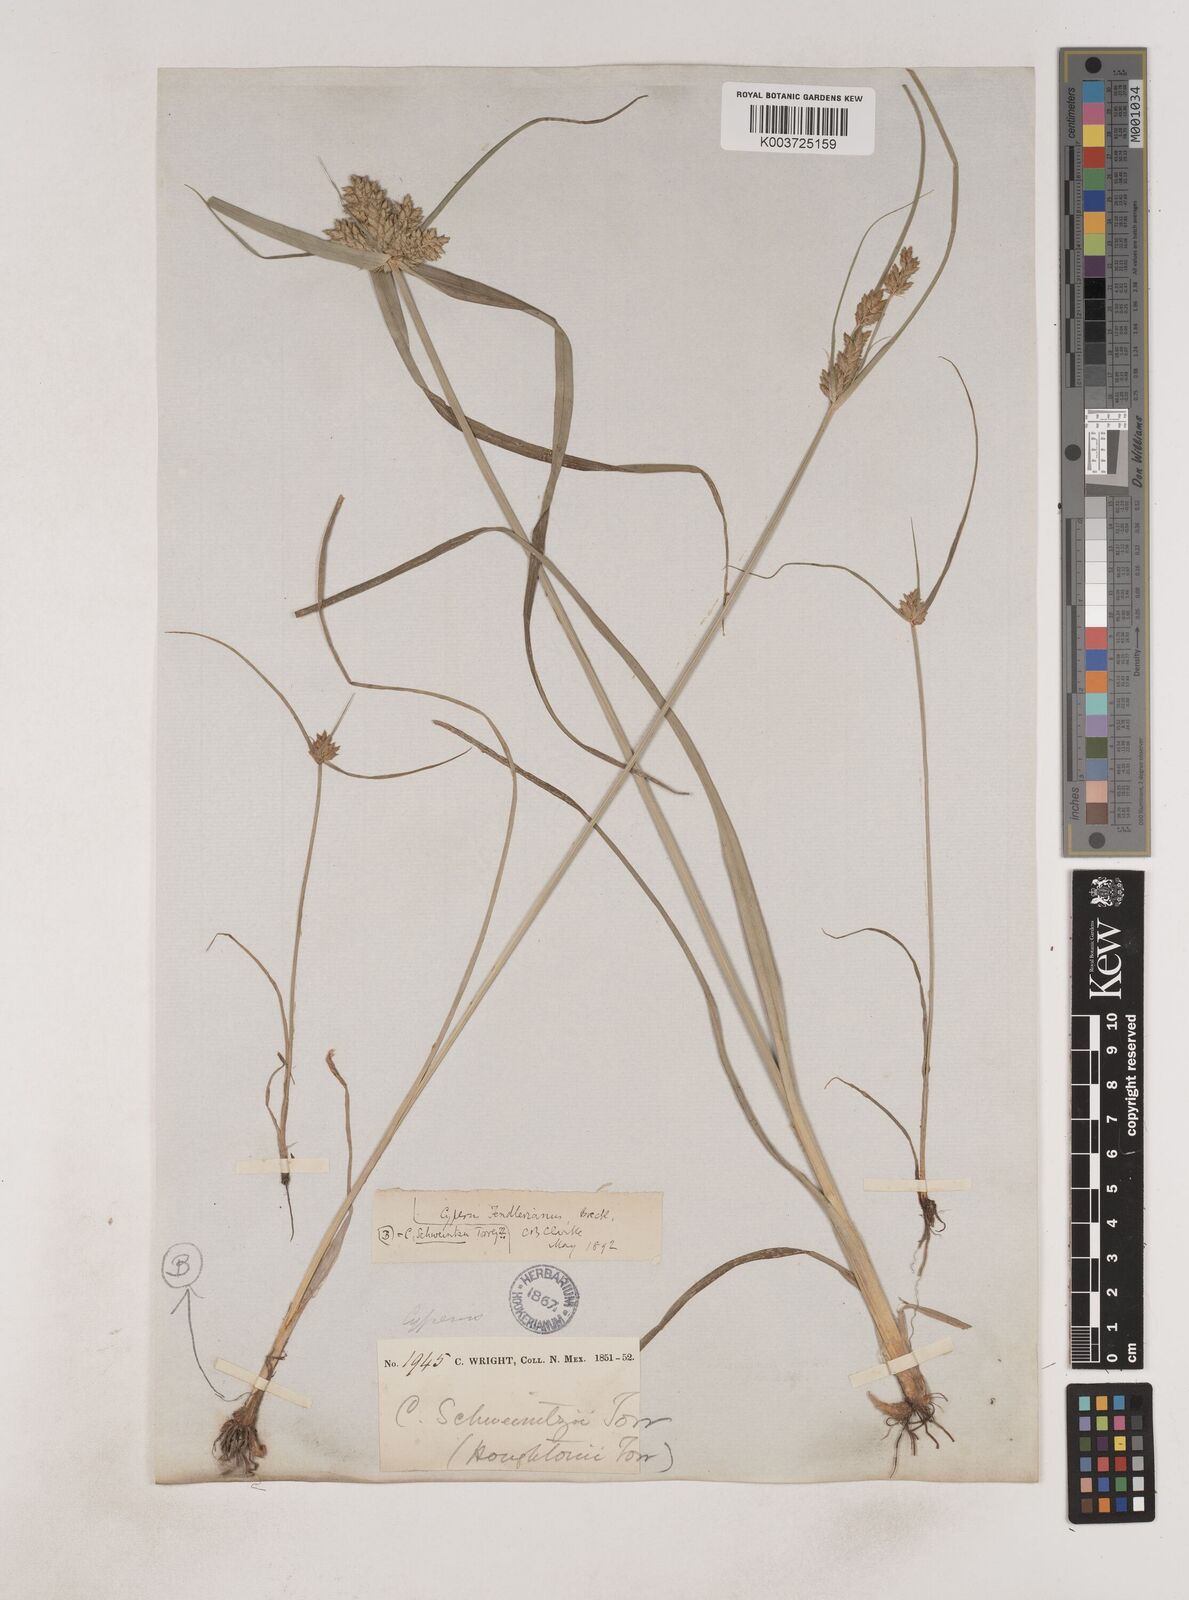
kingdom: Plantae
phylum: Tracheophyta
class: Liliopsida
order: Poales
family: Cyperaceae
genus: Cyperus
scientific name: Cyperus fendlerianus
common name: Fendler flat sedge
